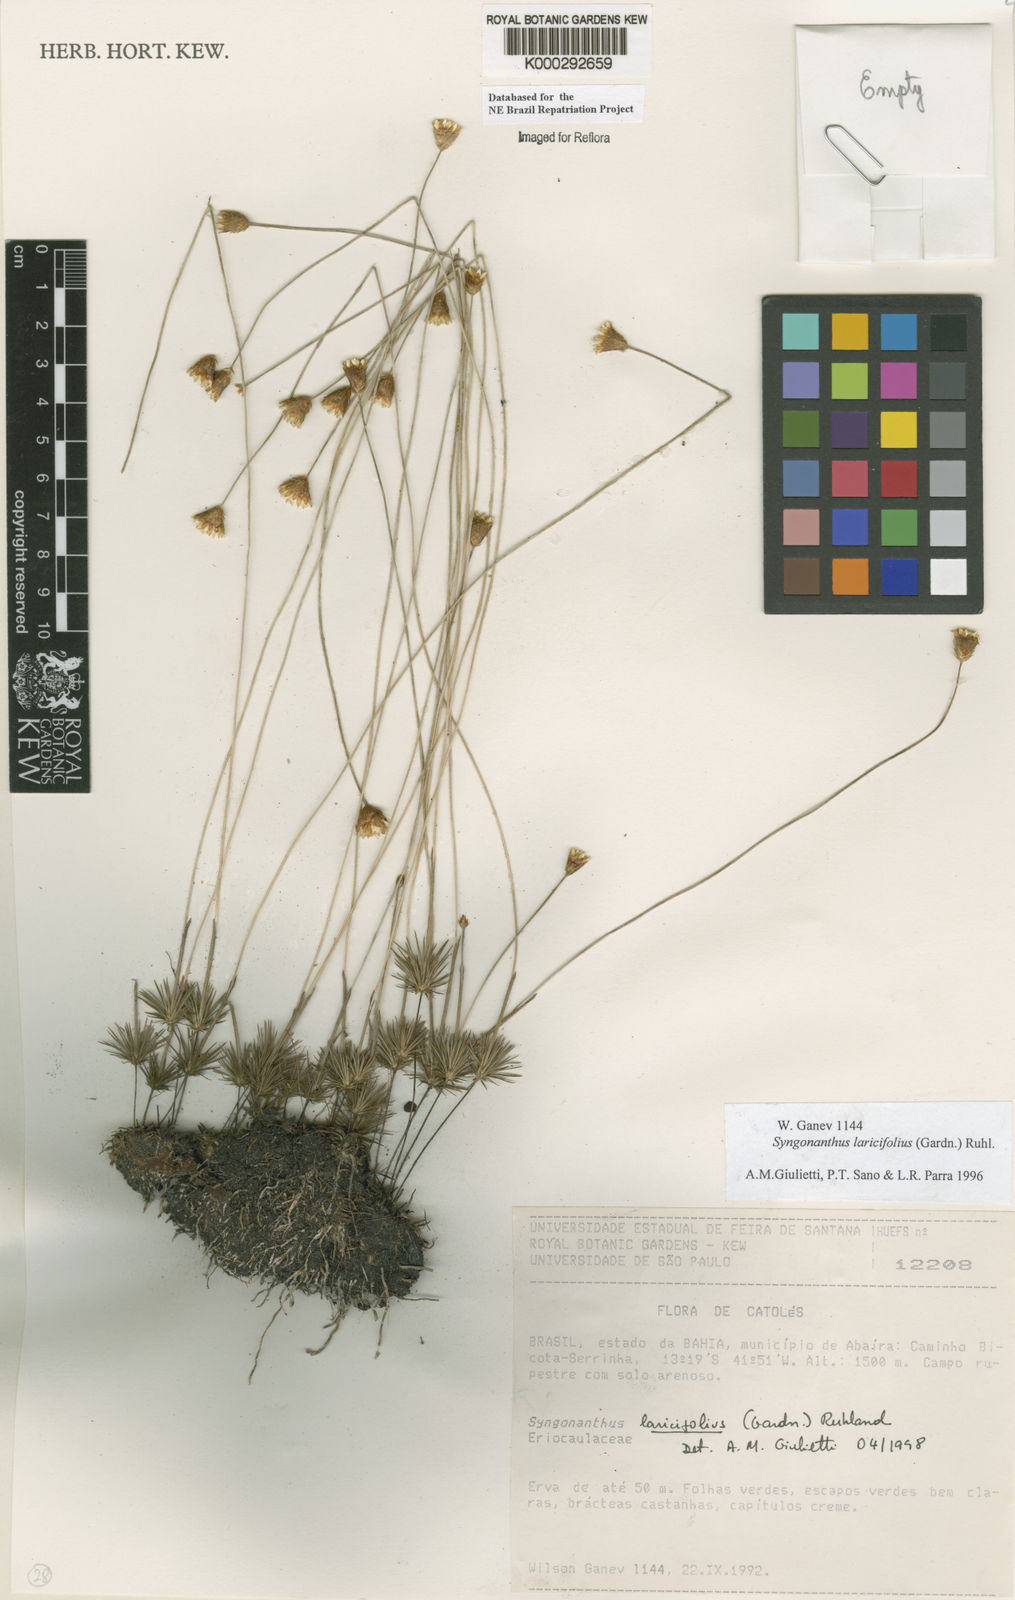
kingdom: Plantae
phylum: Tracheophyta
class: Liliopsida
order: Poales
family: Eriocaulaceae
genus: Syngonanthus
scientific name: Syngonanthus laricifolius
